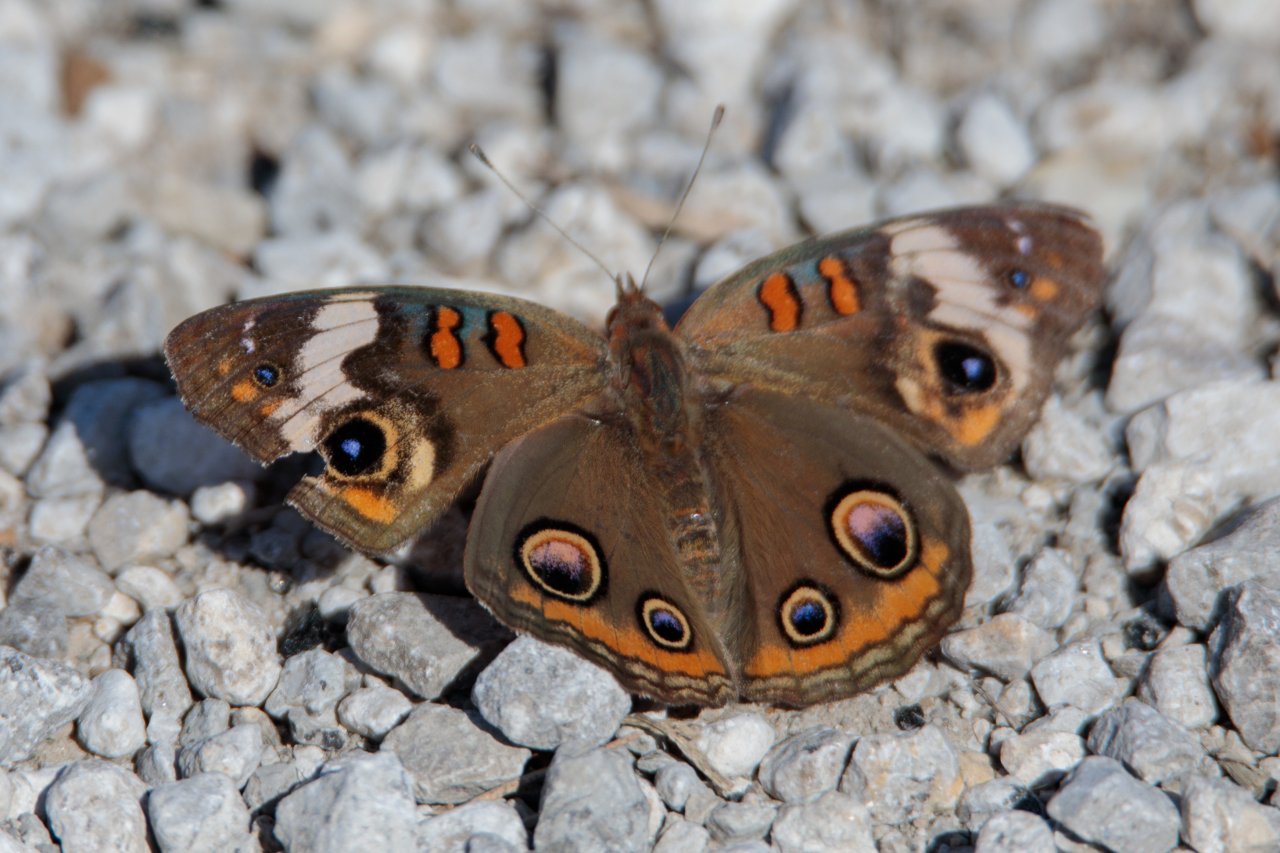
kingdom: Animalia
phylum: Arthropoda
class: Insecta
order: Lepidoptera
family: Nymphalidae
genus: Junonia
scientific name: Junonia coenia
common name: Common Buckeye
